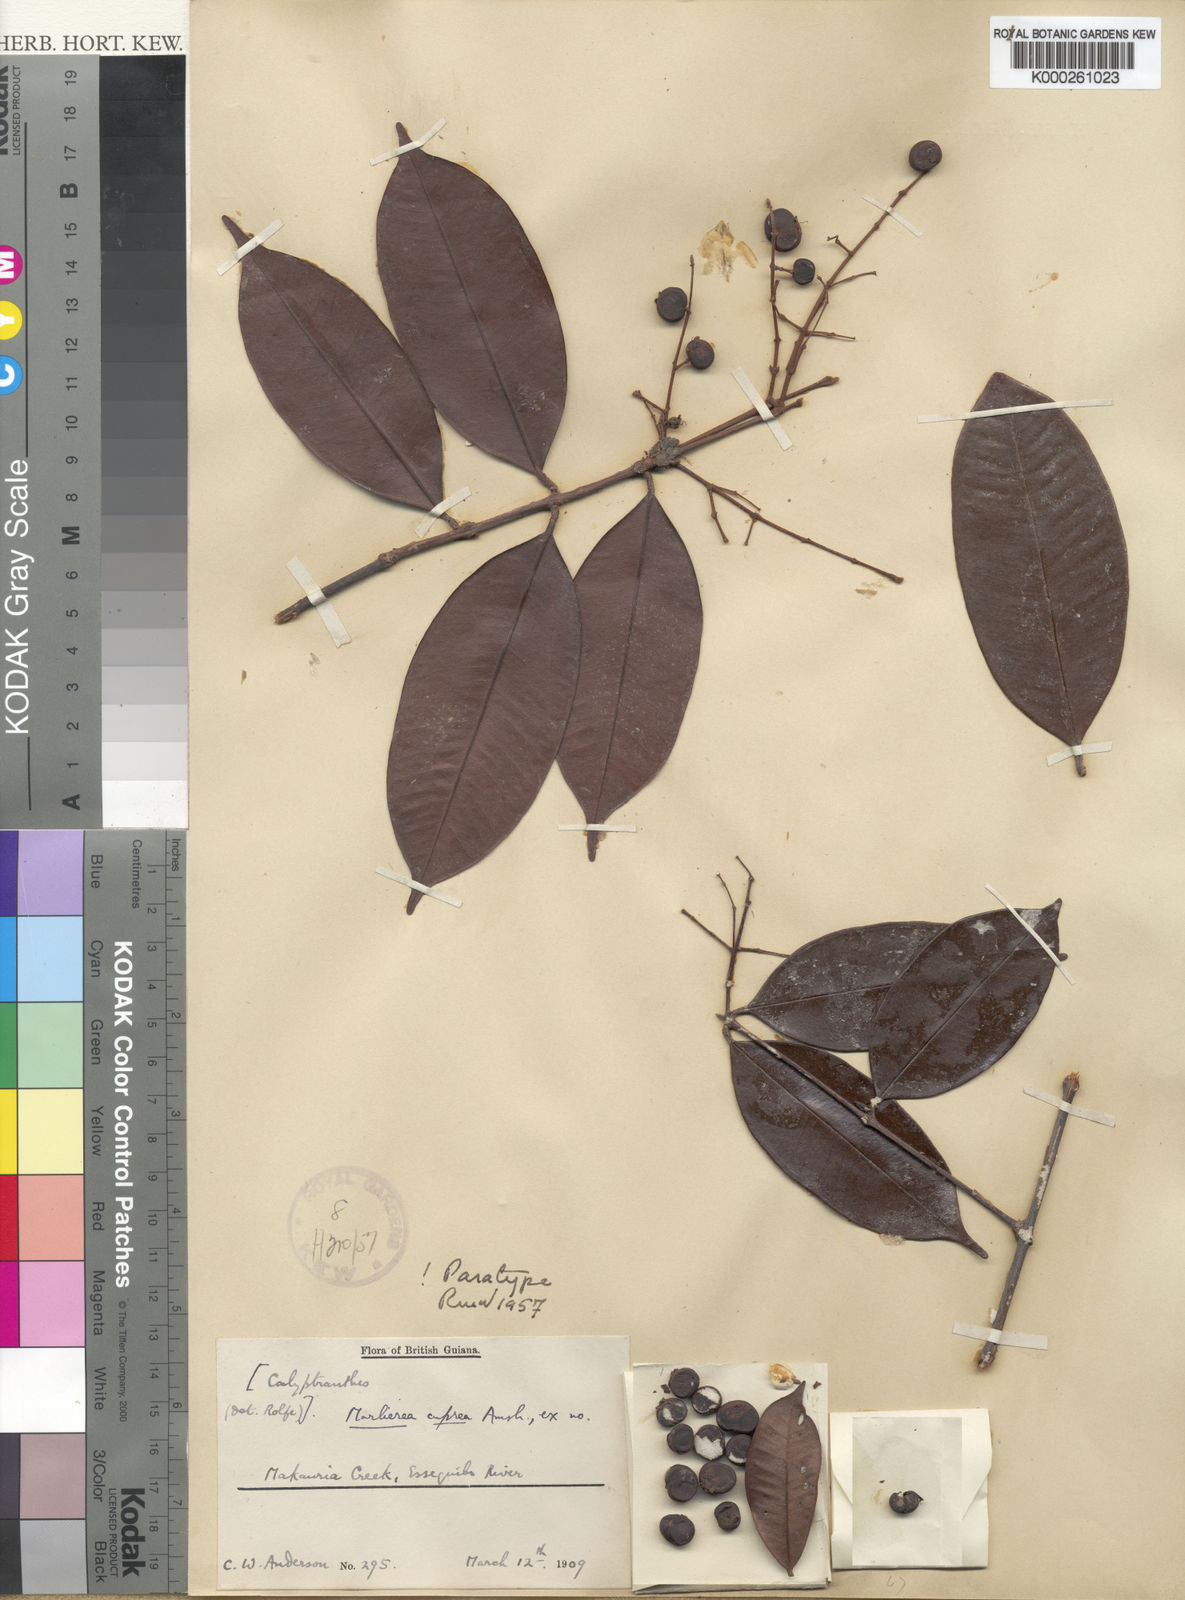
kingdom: Plantae
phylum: Tracheophyta
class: Magnoliopsida
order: Myrtales
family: Myrtaceae
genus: Myrcia
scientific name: Myrcia neocuprea
